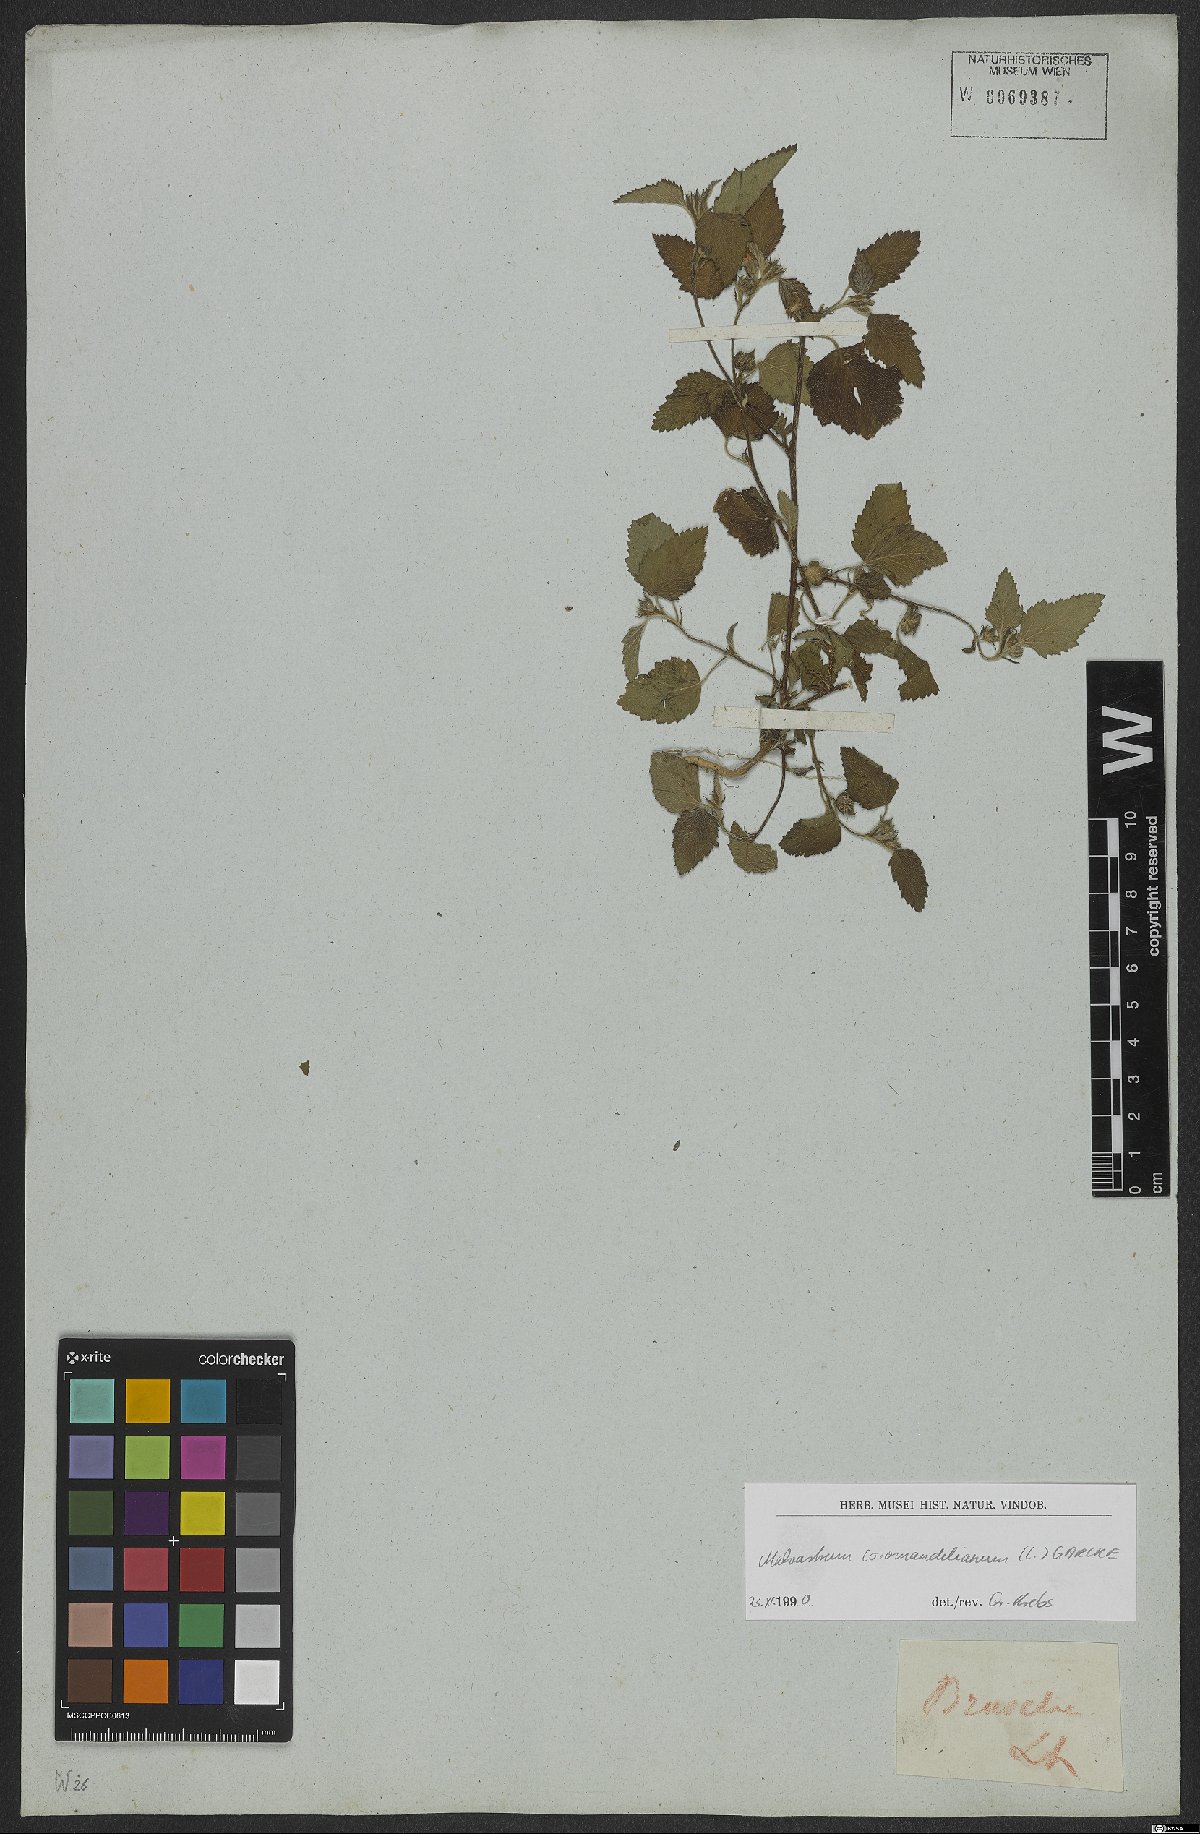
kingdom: Plantae
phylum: Tracheophyta
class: Magnoliopsida
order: Malvales
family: Malvaceae
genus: Malvastrum
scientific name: Malvastrum coromandelianum
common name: Threelobe false mallow
